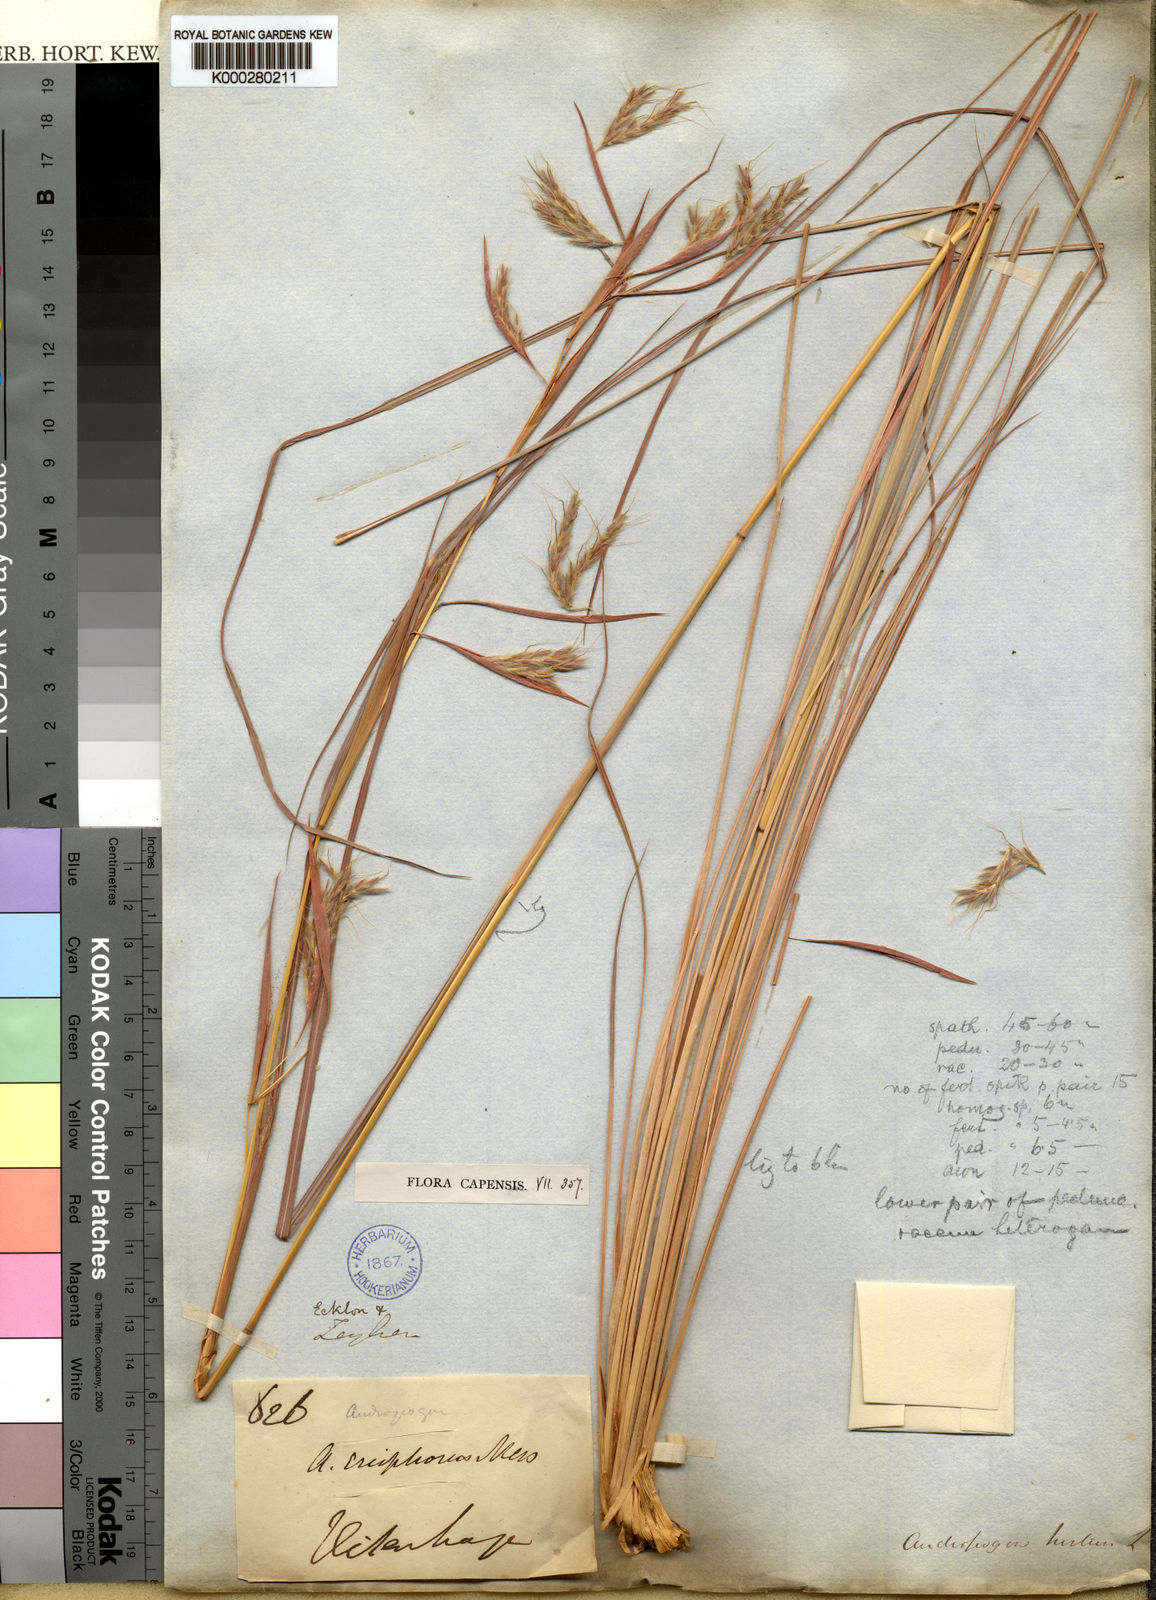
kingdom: Plantae
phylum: Tracheophyta
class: Liliopsida
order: Poales
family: Poaceae
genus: Hyparrhenia
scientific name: Hyparrhenia dregeana
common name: Silky thatching grass
